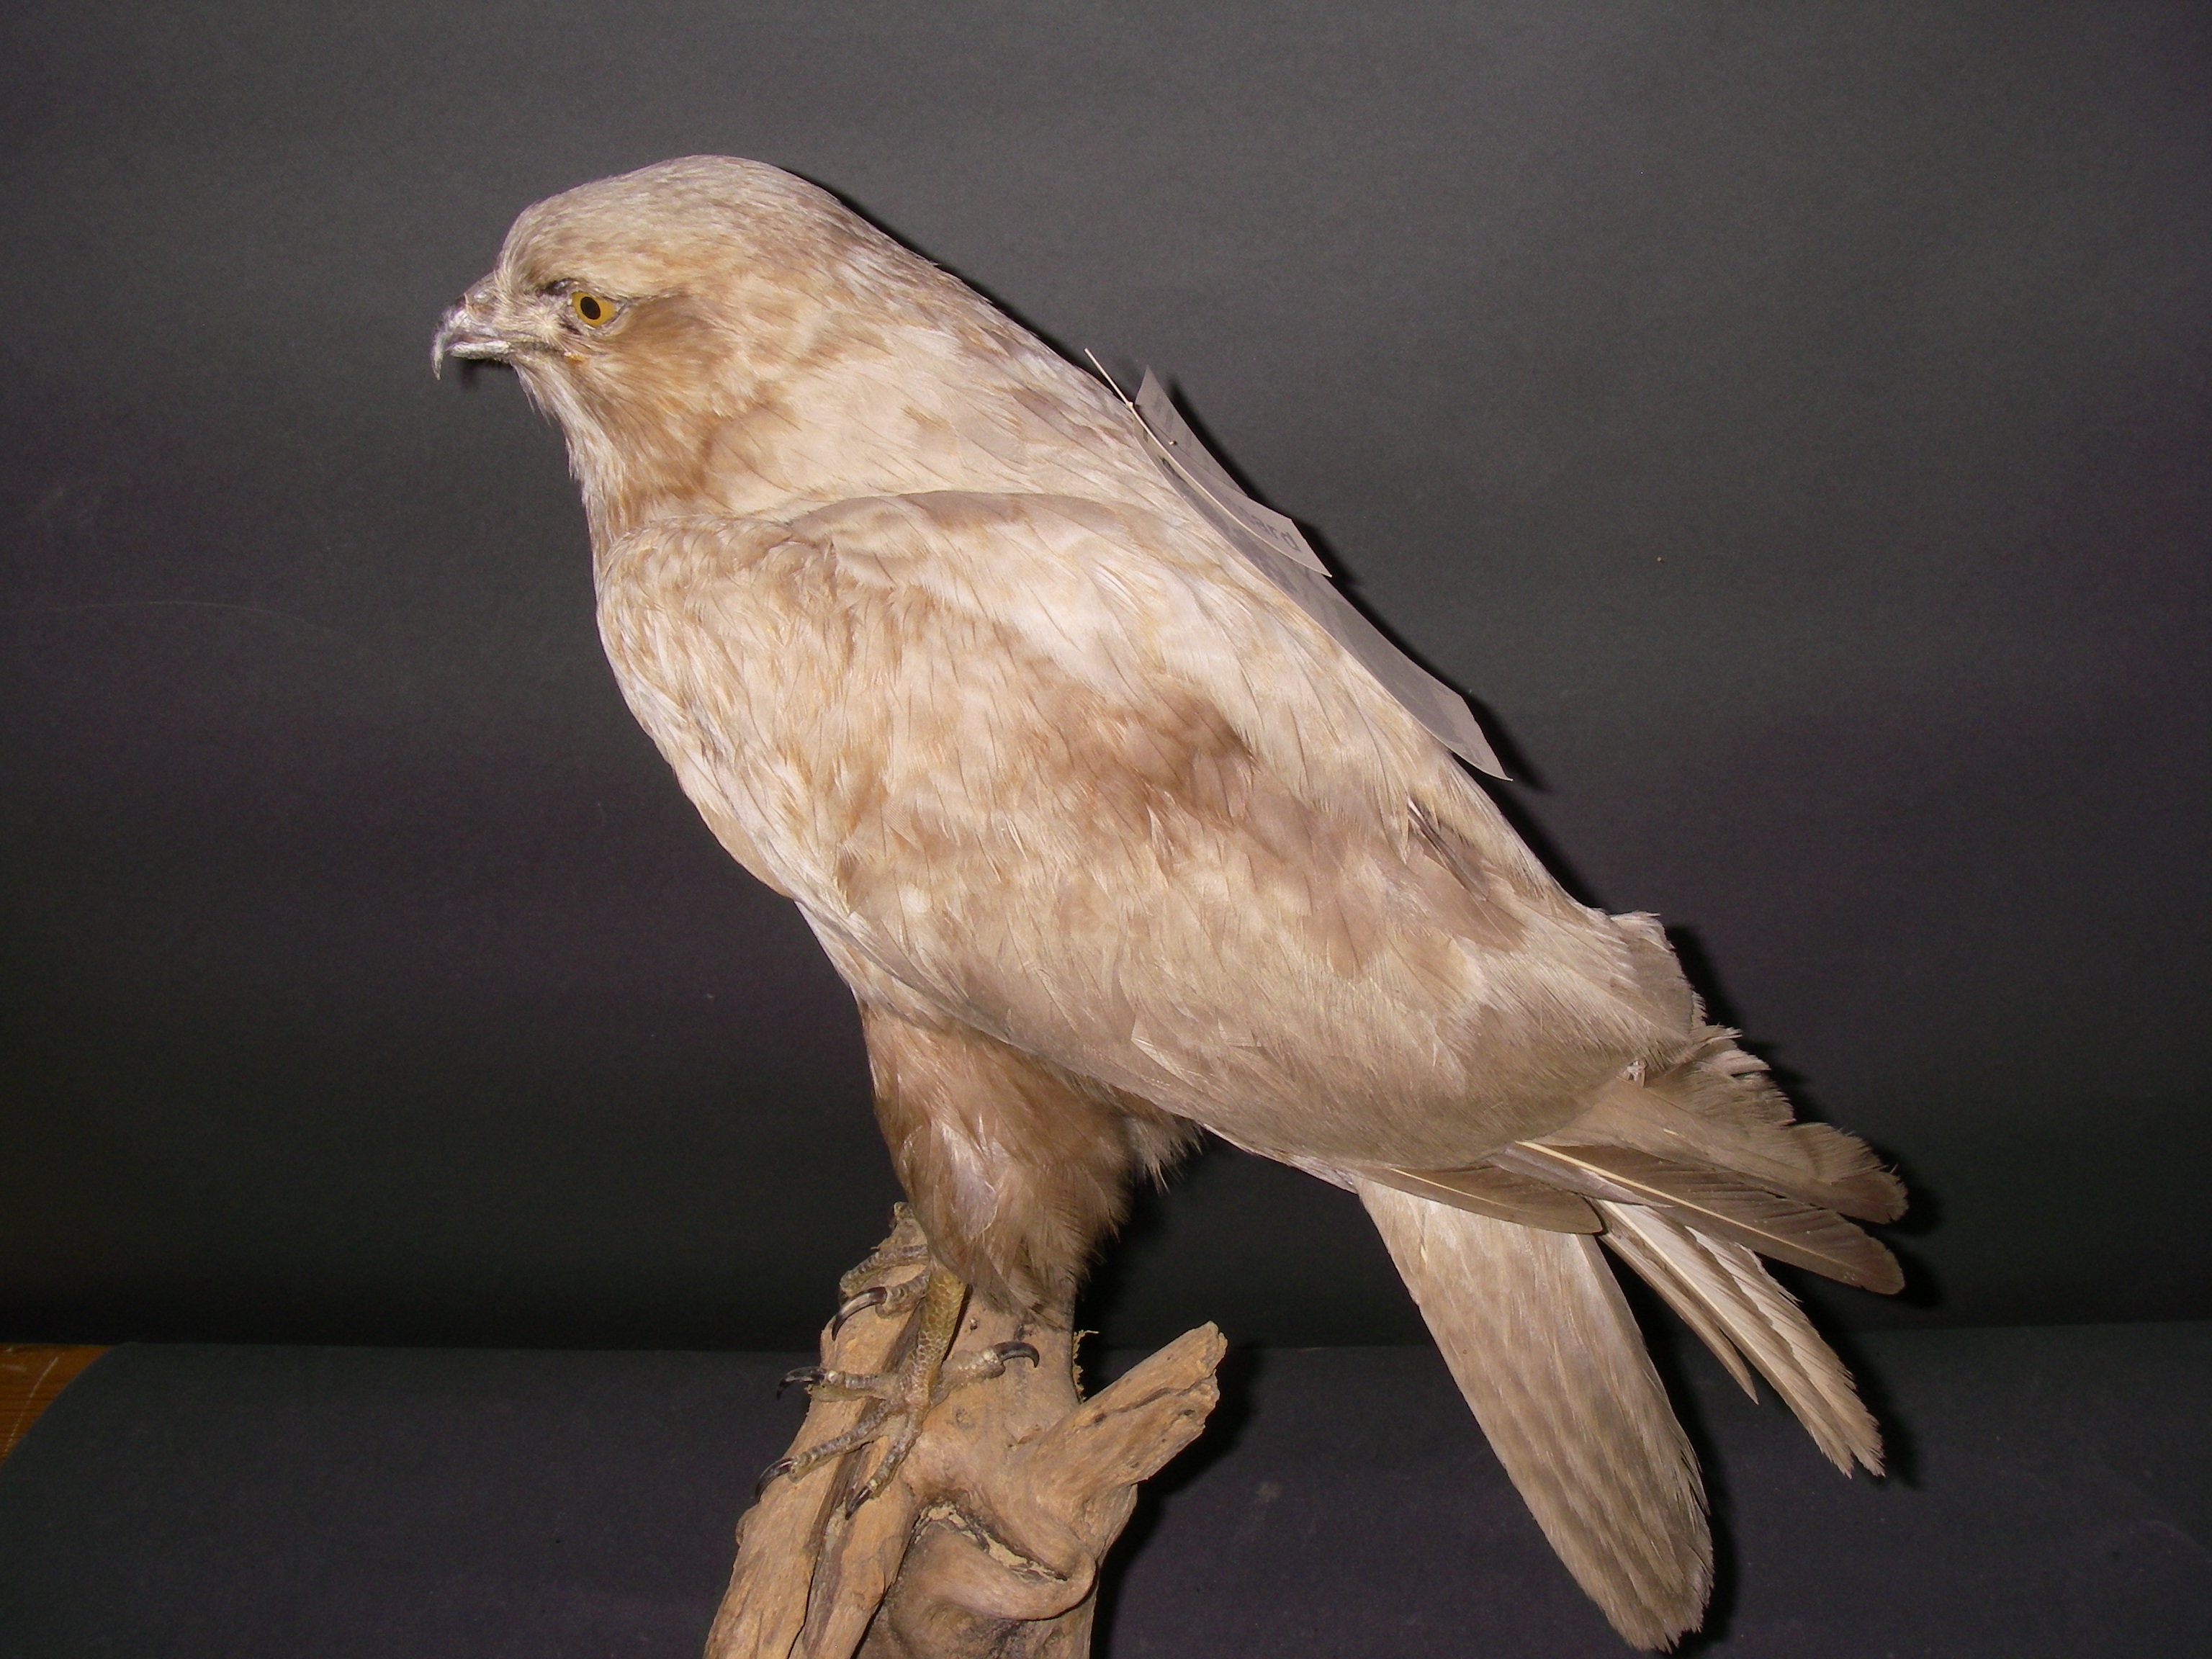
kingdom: Animalia
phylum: Chordata
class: Aves
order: Accipitriformes
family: Accipitridae
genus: Buteo
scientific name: Buteo buteo
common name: Common buzzard
